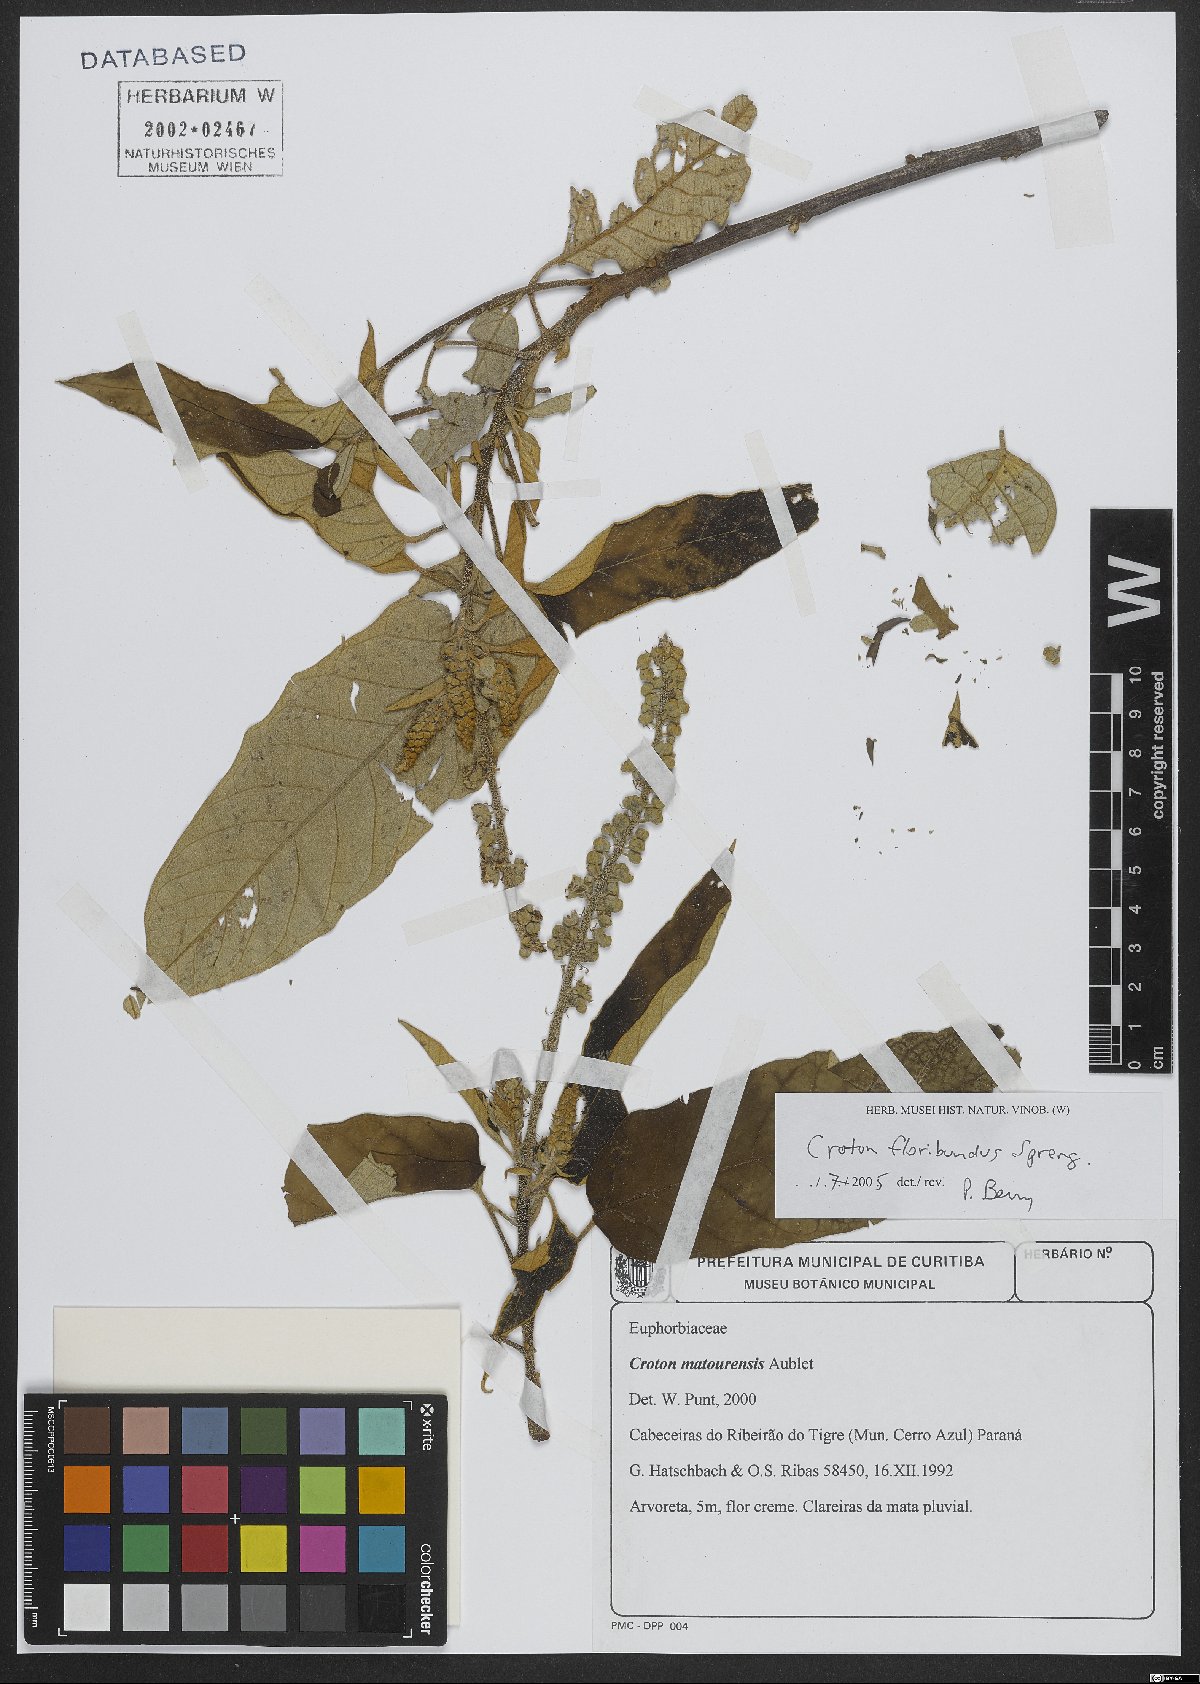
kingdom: Plantae
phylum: Tracheophyta
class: Magnoliopsida
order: Malpighiales
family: Euphorbiaceae
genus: Croton
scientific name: Croton floribundus
